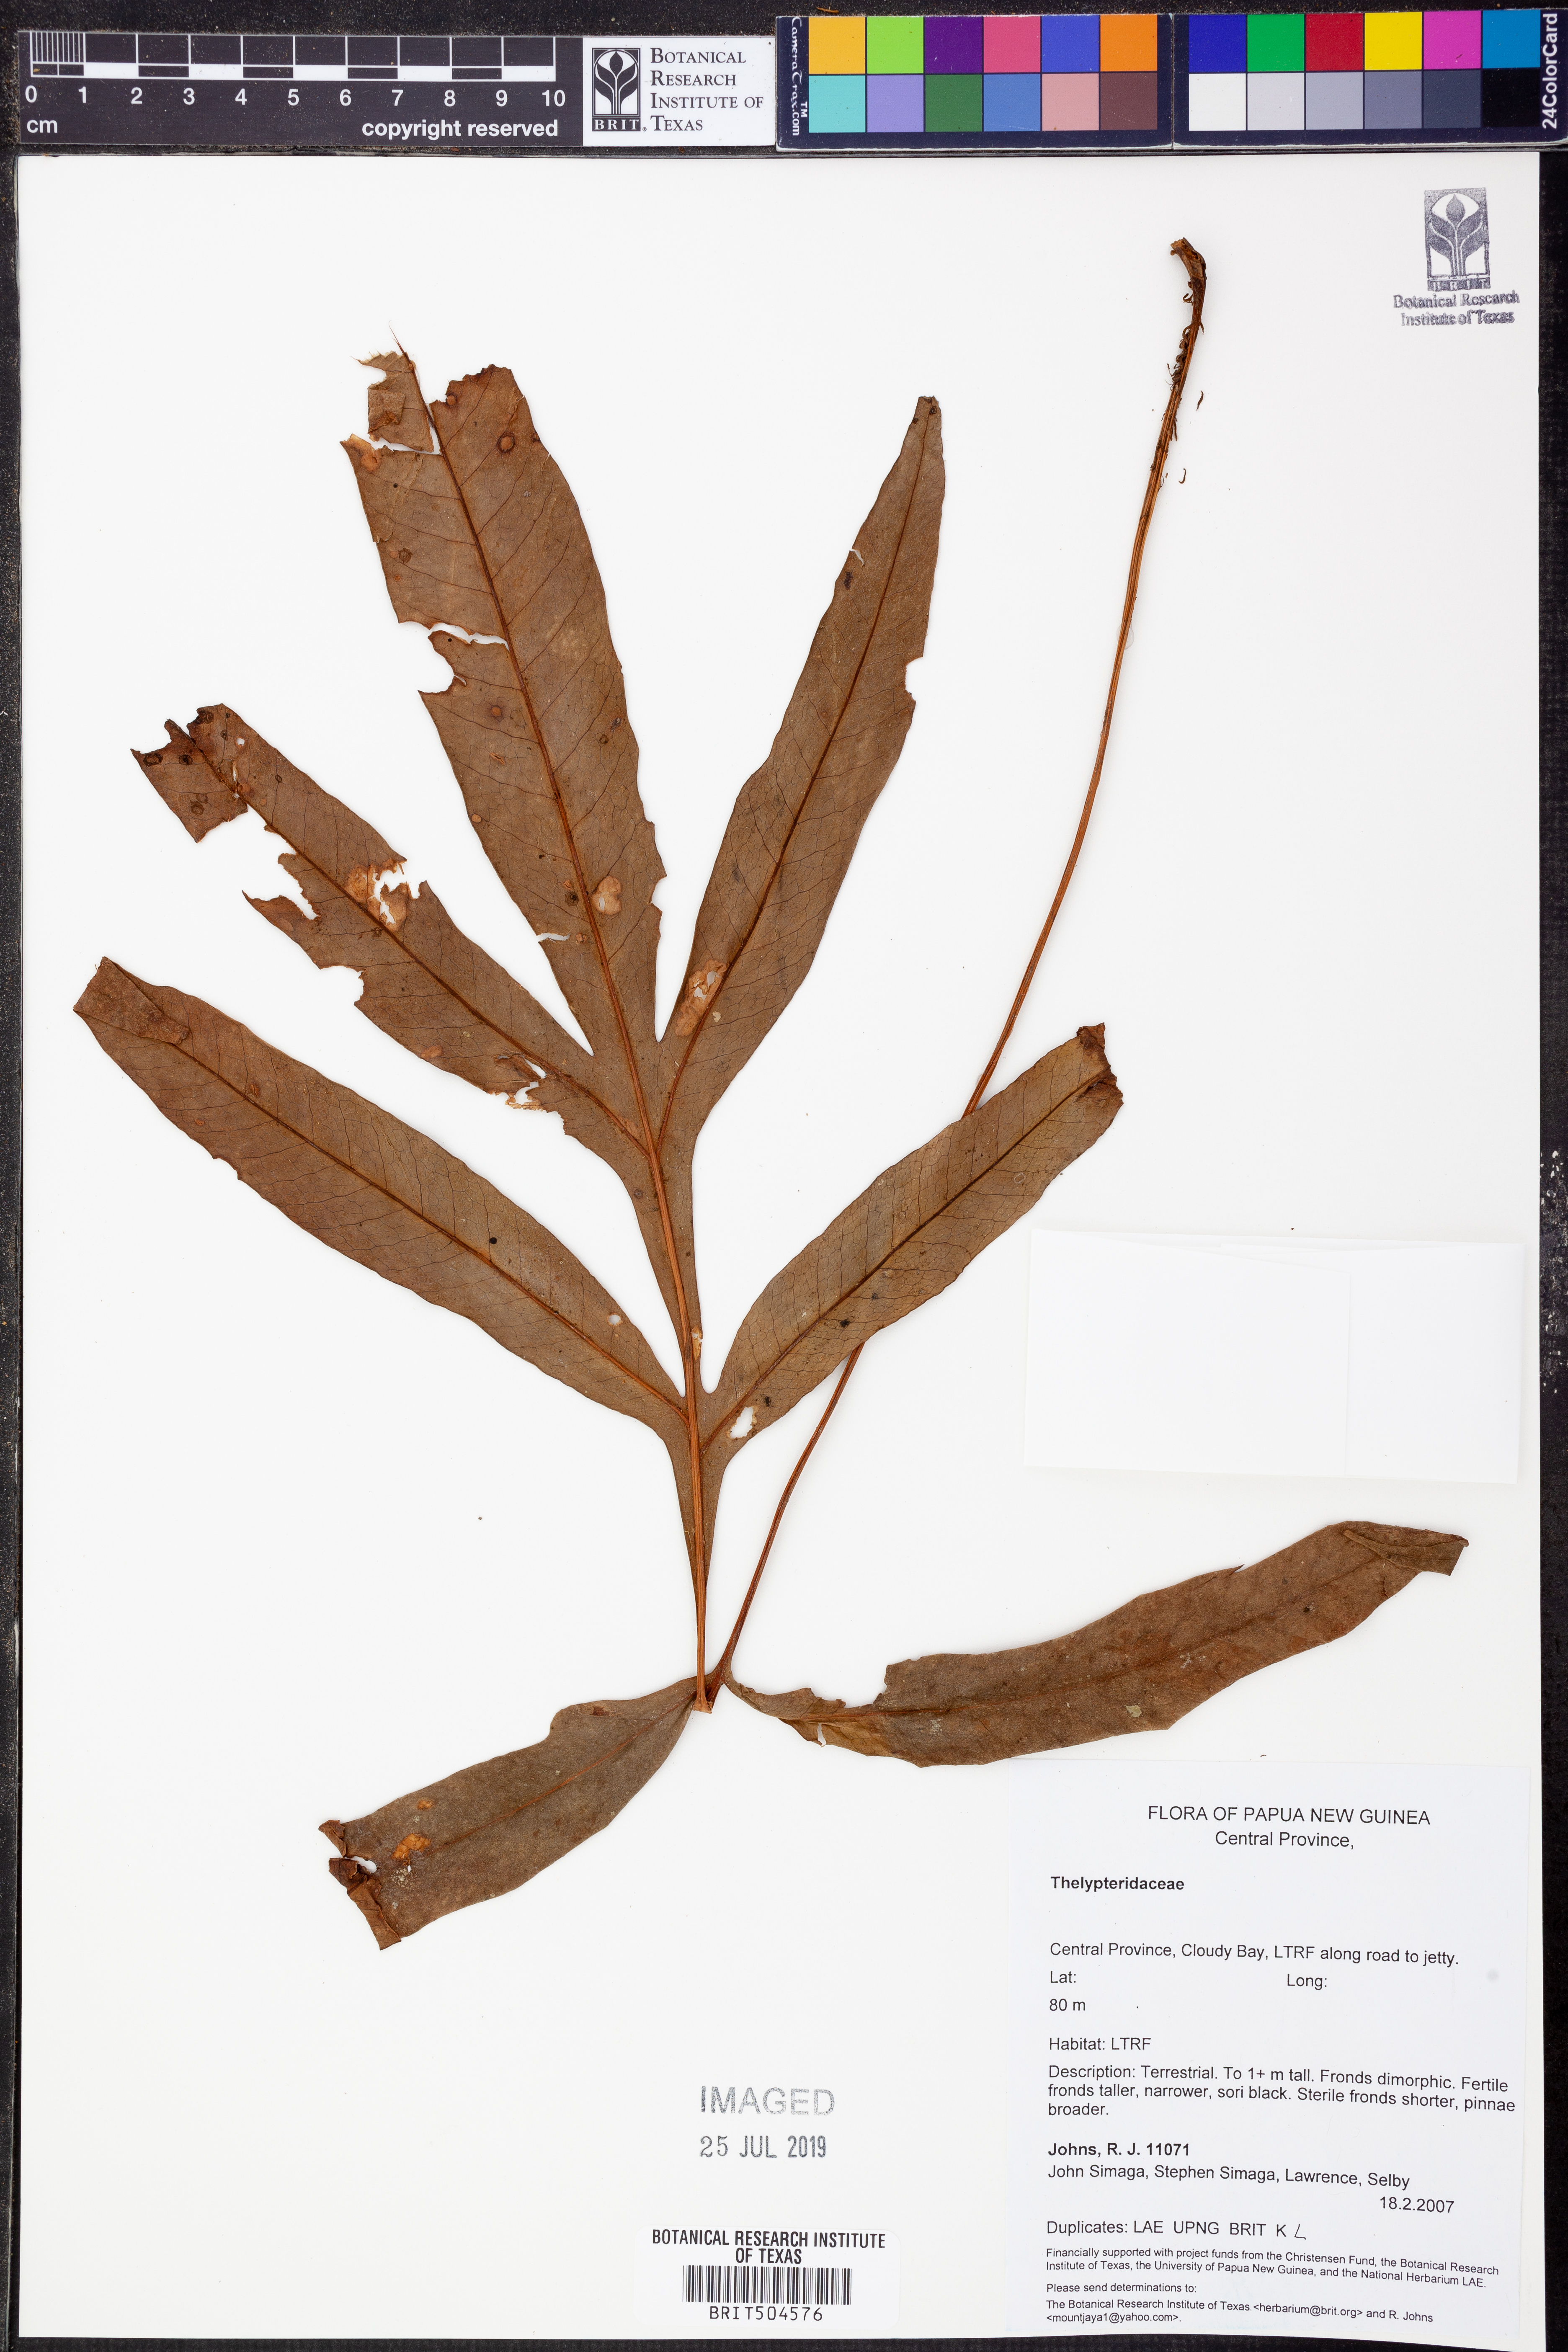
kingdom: Plantae
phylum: Tracheophyta
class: Polypodiopsida
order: Polypodiales
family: Thelypteridaceae
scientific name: Thelypteridaceae
